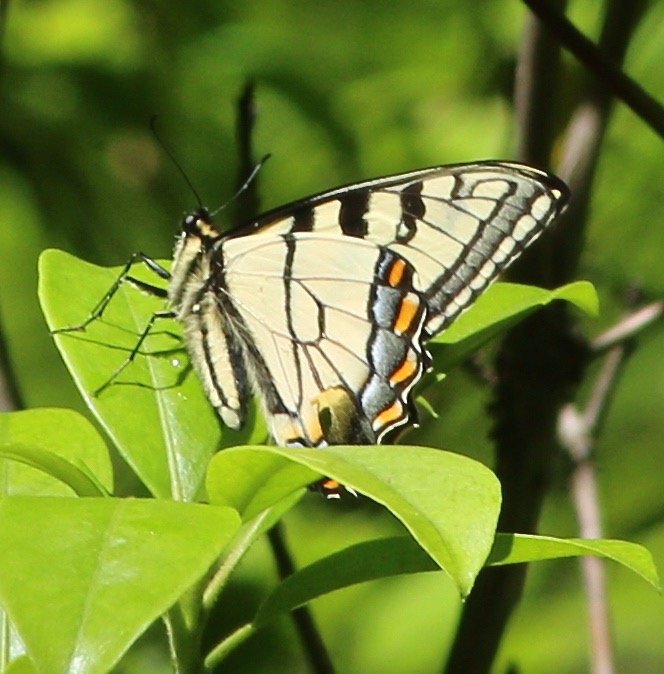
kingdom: Animalia
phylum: Arthropoda
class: Insecta
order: Lepidoptera
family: Papilionidae
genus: Pterourus
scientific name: Pterourus appalachiensis
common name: Appalachian Tiger Swallowtail
